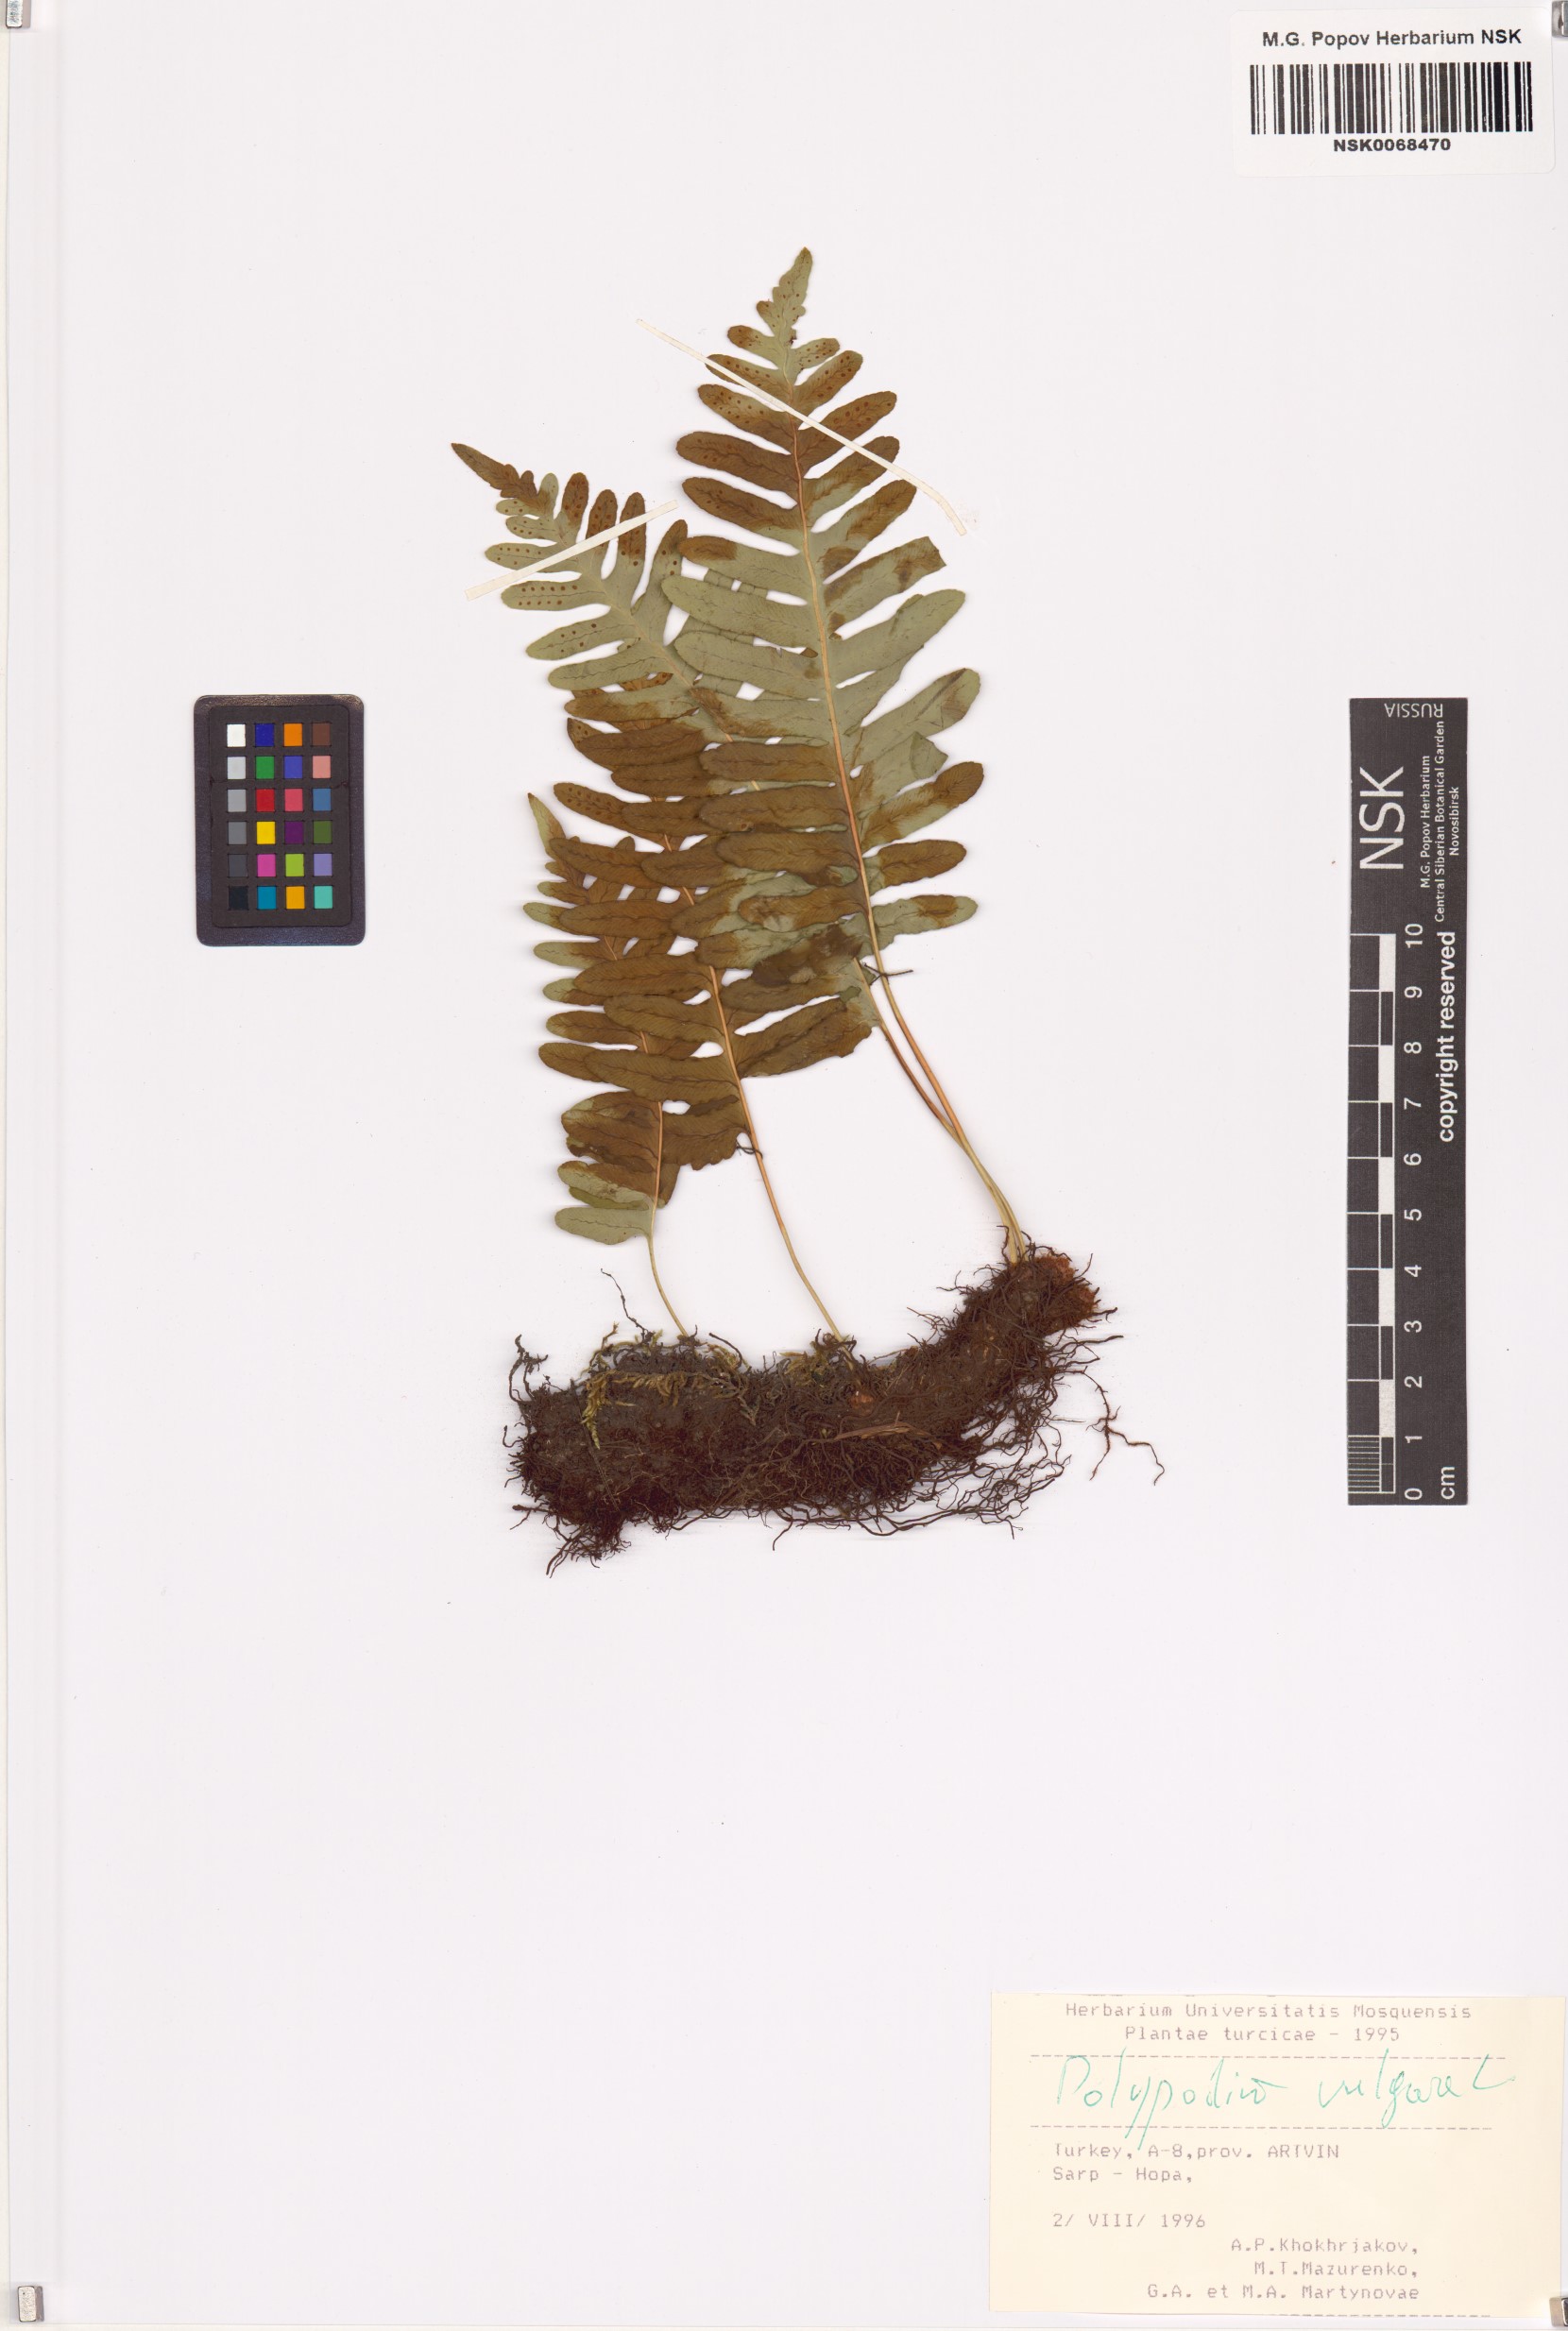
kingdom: Plantae
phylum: Tracheophyta
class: Polypodiopsida
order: Polypodiales
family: Polypodiaceae
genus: Polypodium
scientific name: Polypodium vulgare
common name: Common polypody
